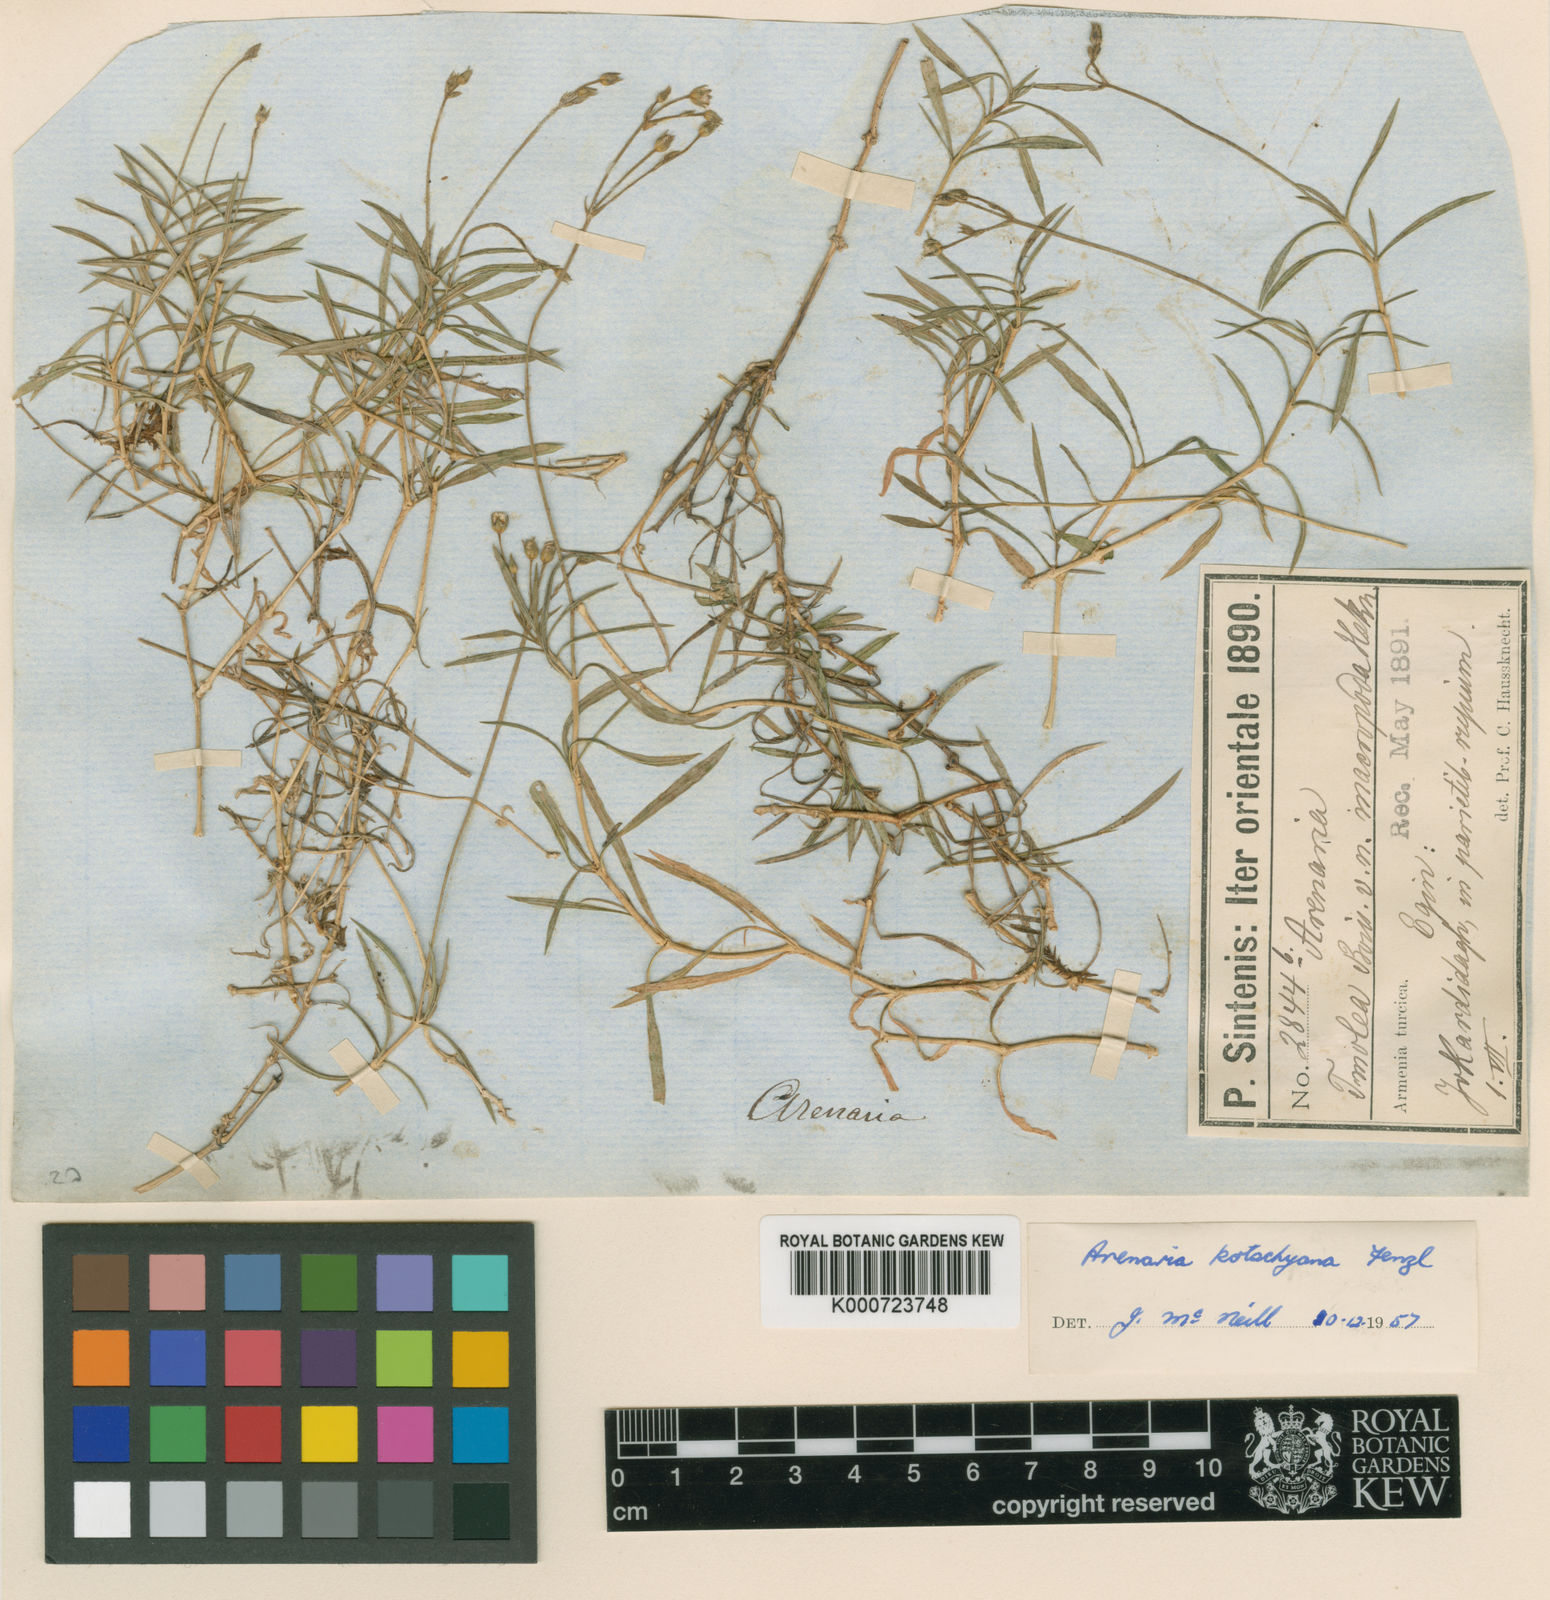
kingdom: Plantae
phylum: Tracheophyta
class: Magnoliopsida
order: Caryophyllales
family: Caryophyllaceae
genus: Arenaria
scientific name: Arenaria kotschyana
